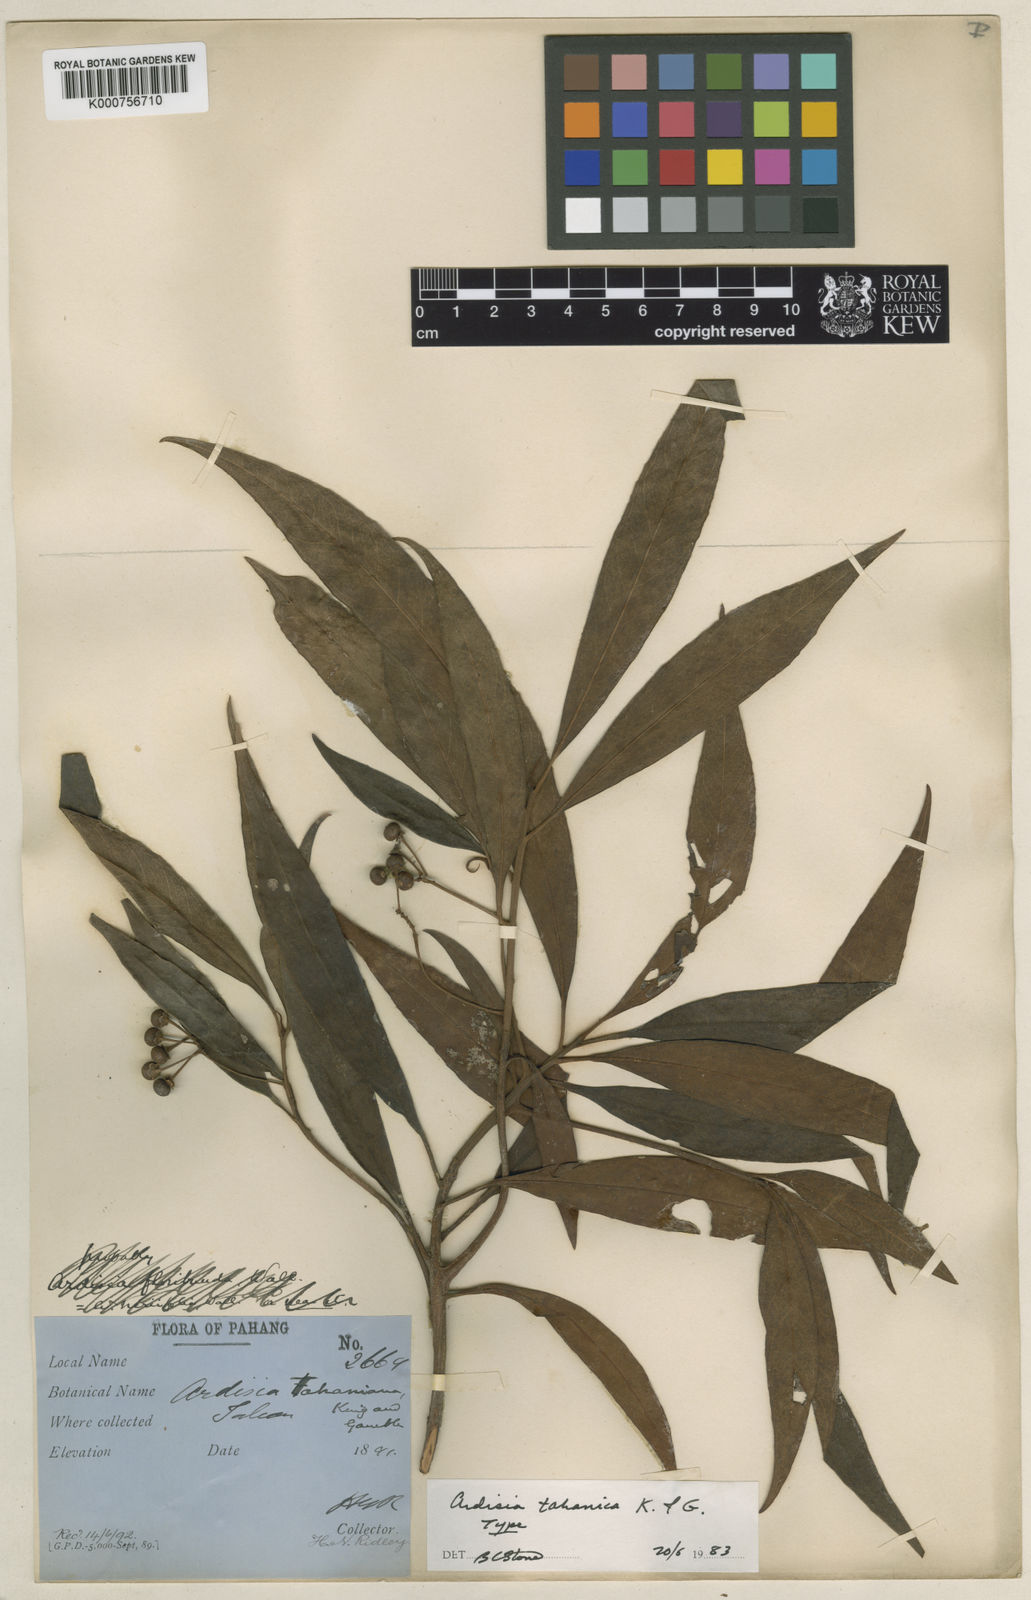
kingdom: Plantae
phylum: Tracheophyta
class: Magnoliopsida
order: Ericales
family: Primulaceae
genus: Ardisia
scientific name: Ardisia tahanica
